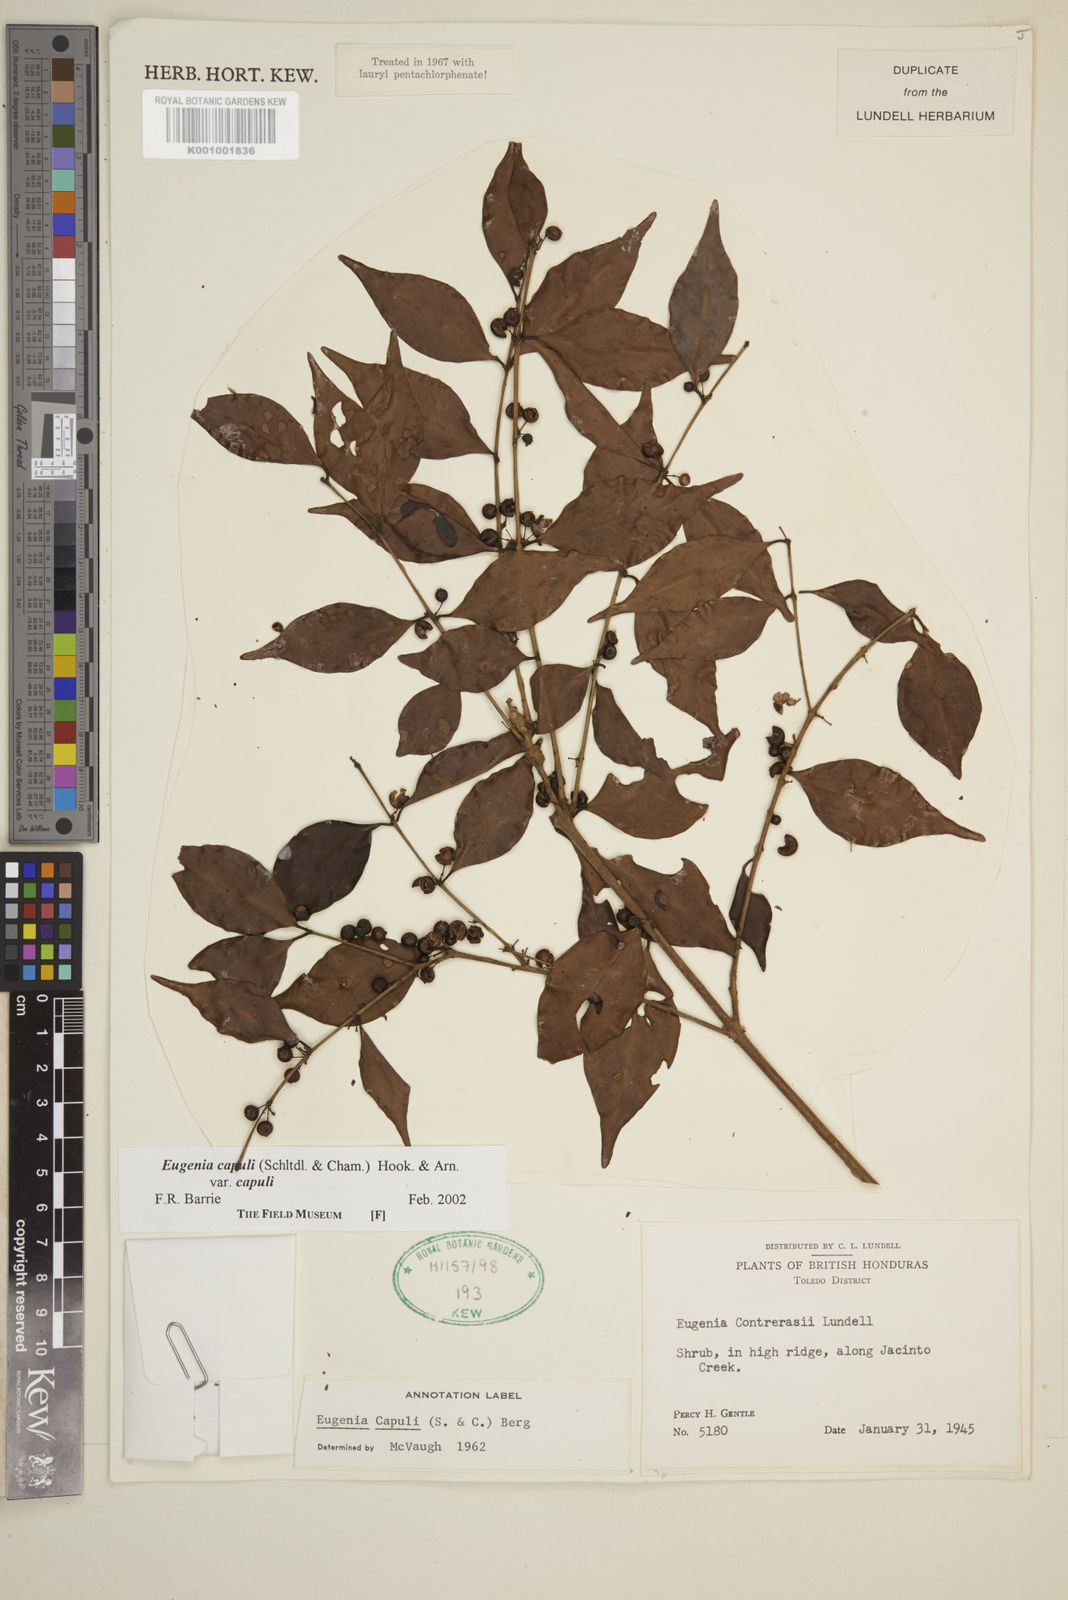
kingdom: Plantae
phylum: Tracheophyta
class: Magnoliopsida
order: Myrtales
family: Myrtaceae
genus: Eugenia
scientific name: Eugenia capuli
